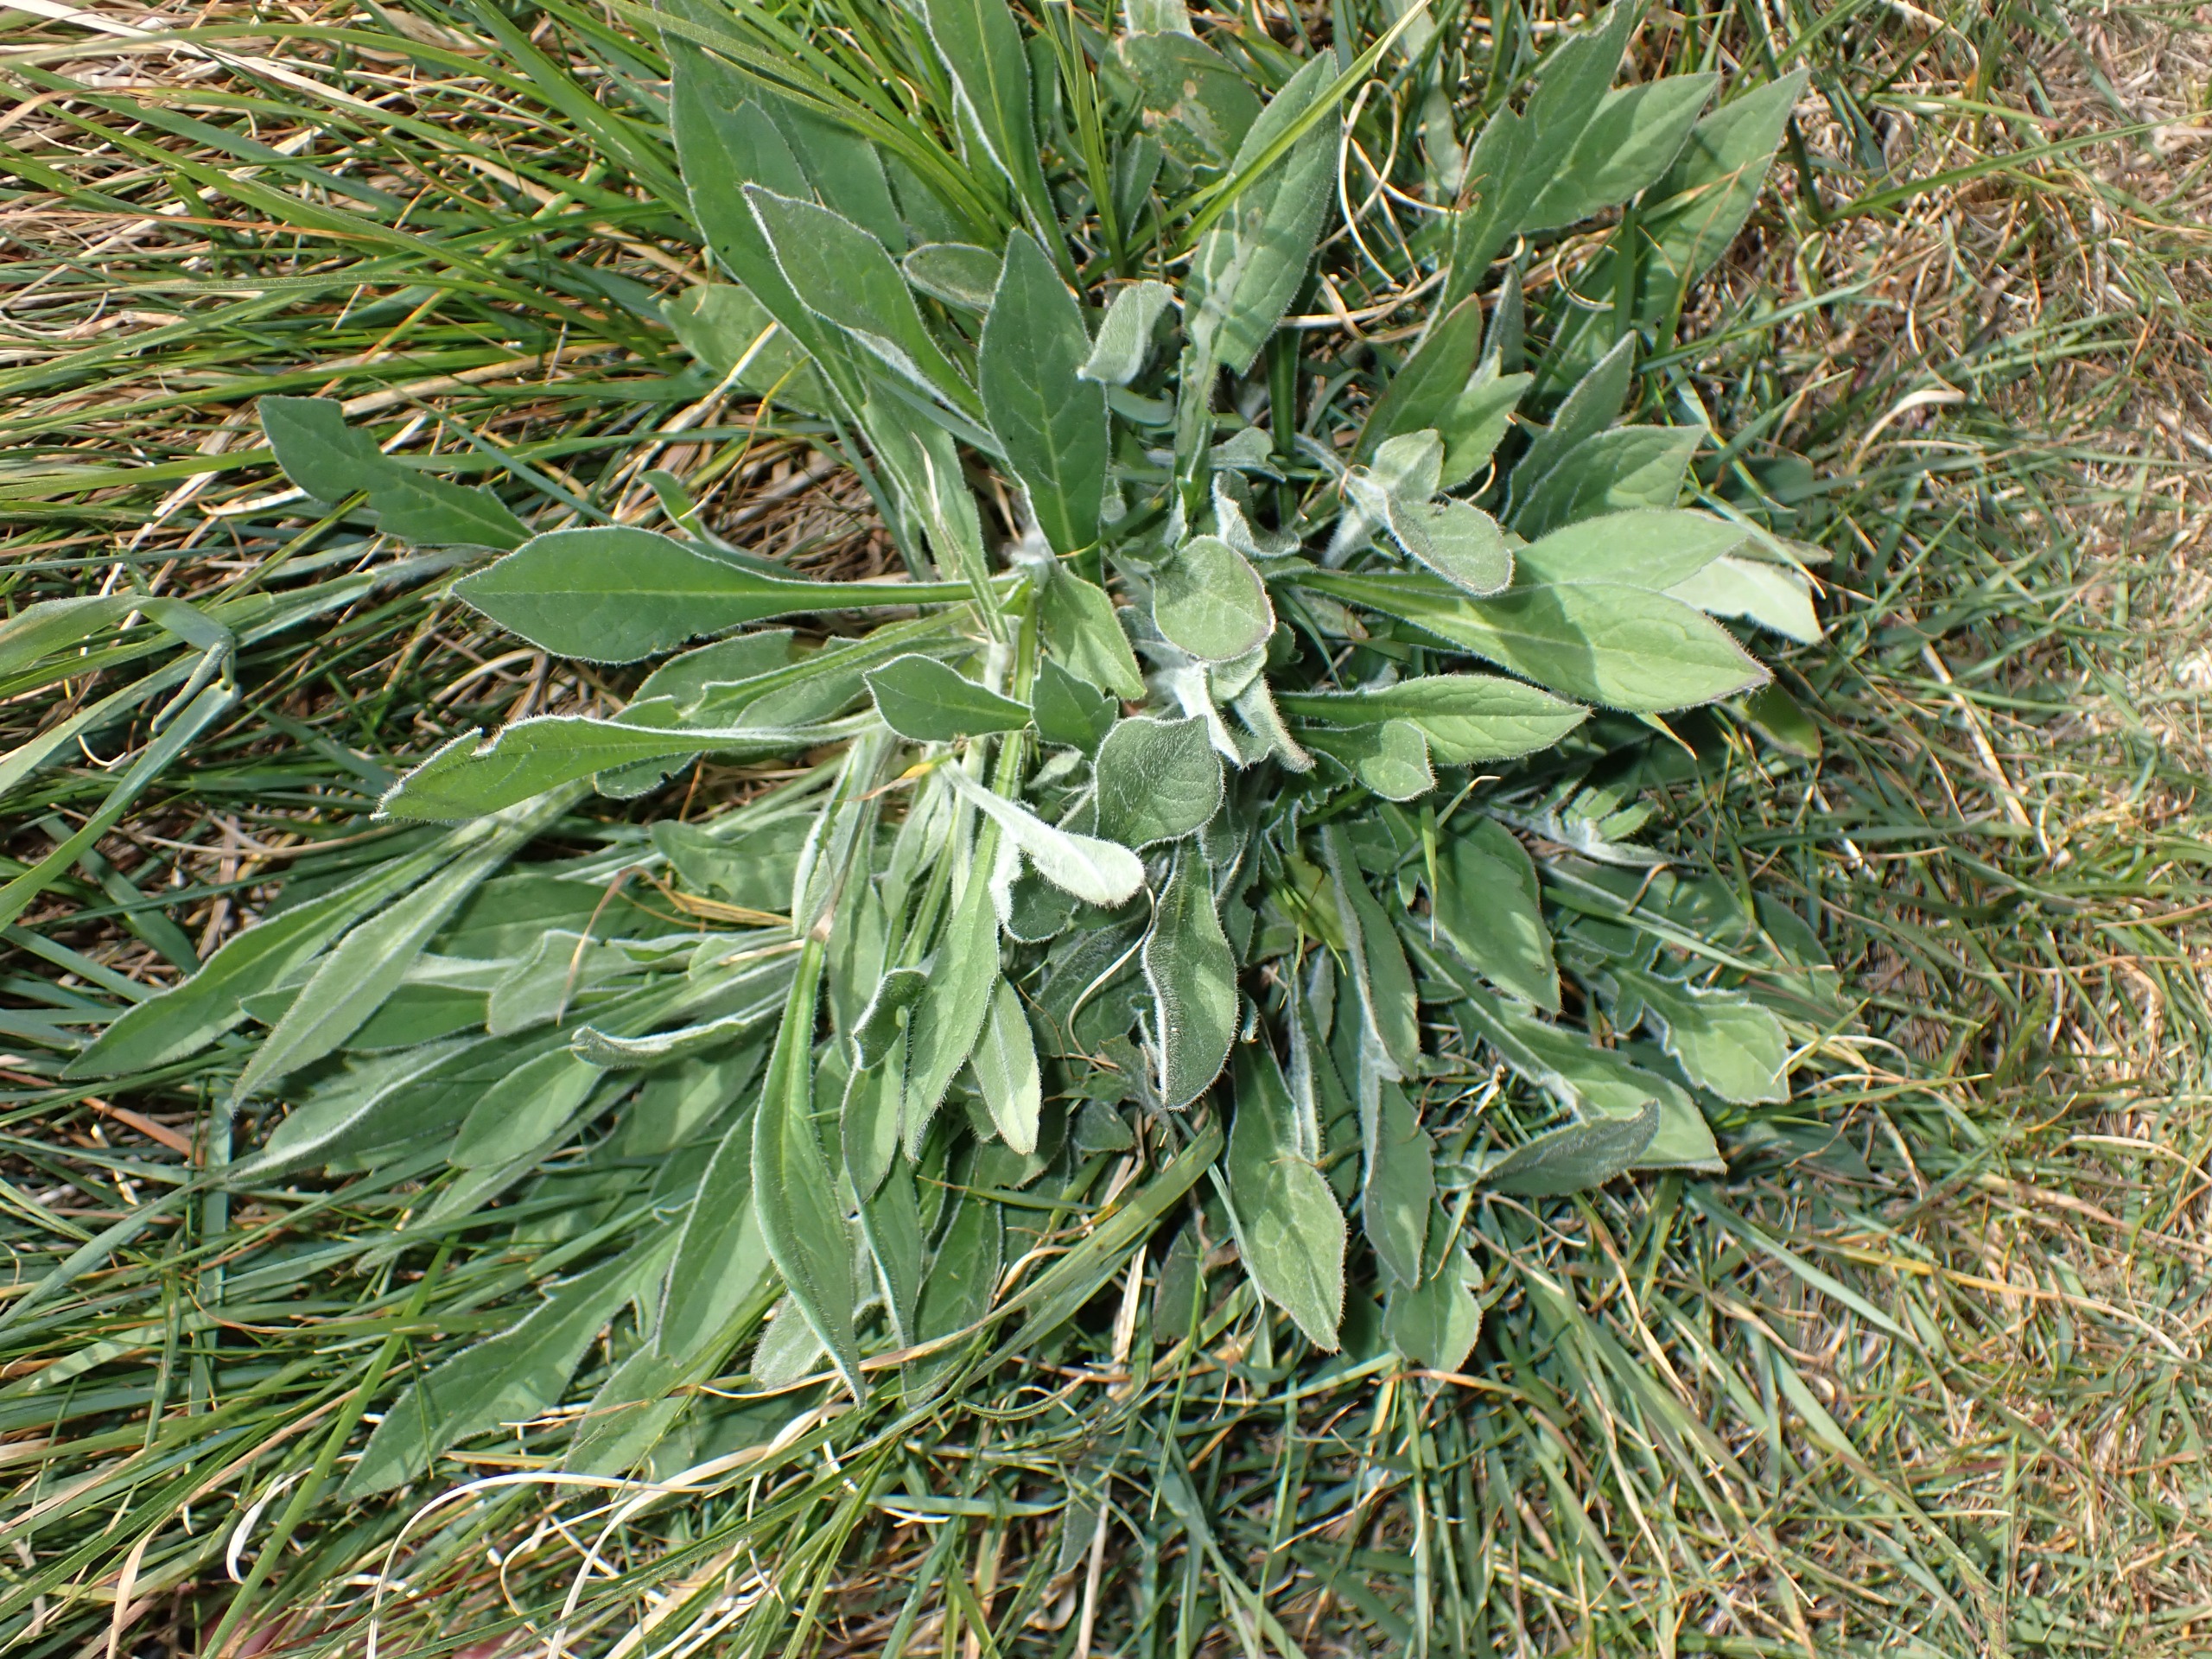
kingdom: Plantae
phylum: Tracheophyta
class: Magnoliopsida
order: Dipsacales
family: Caprifoliaceae
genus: Knautia
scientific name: Knautia arvensis
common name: Blåhat
